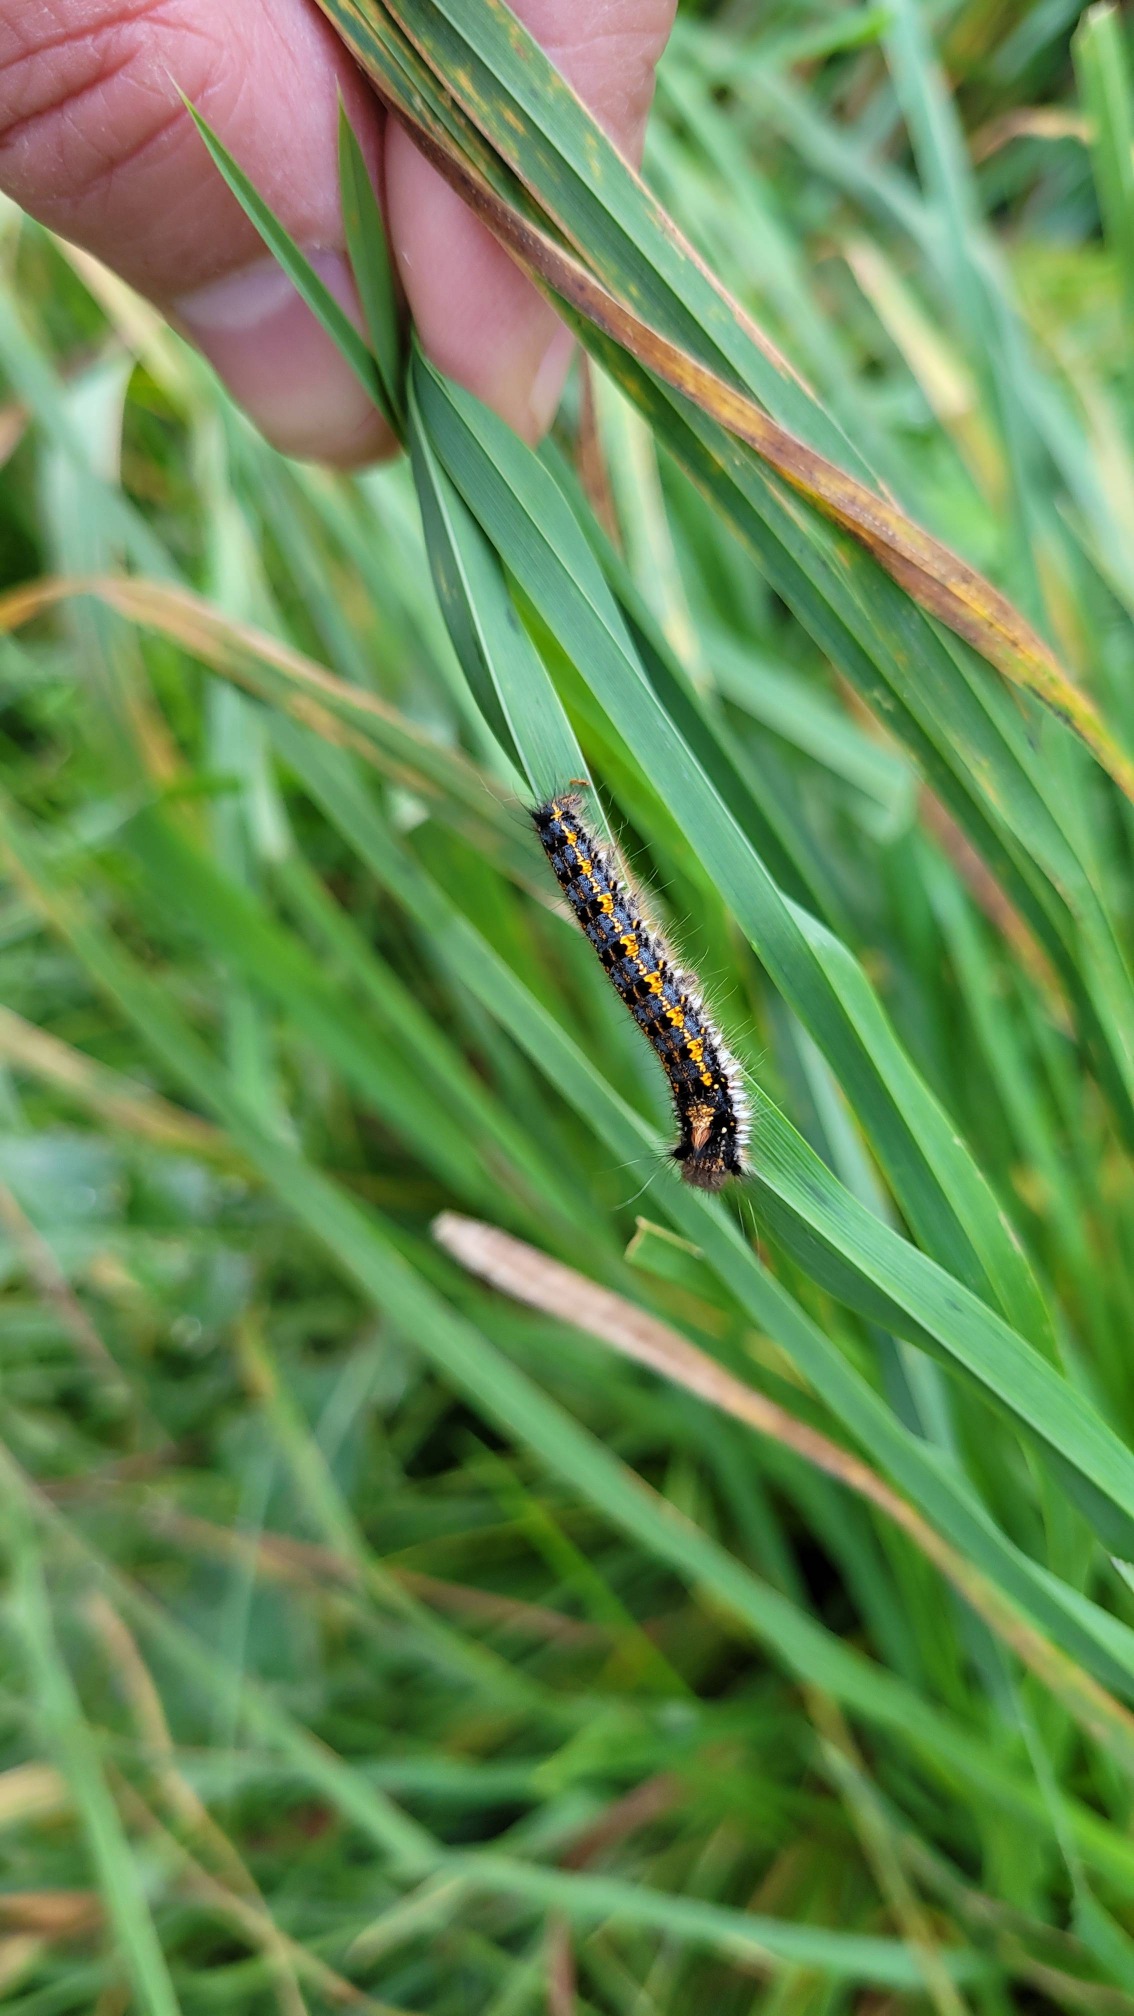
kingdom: Animalia
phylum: Arthropoda
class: Insecta
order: Lepidoptera
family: Lasiocampidae
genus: Euthrix
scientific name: Euthrix potatoria
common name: Græsspinder
